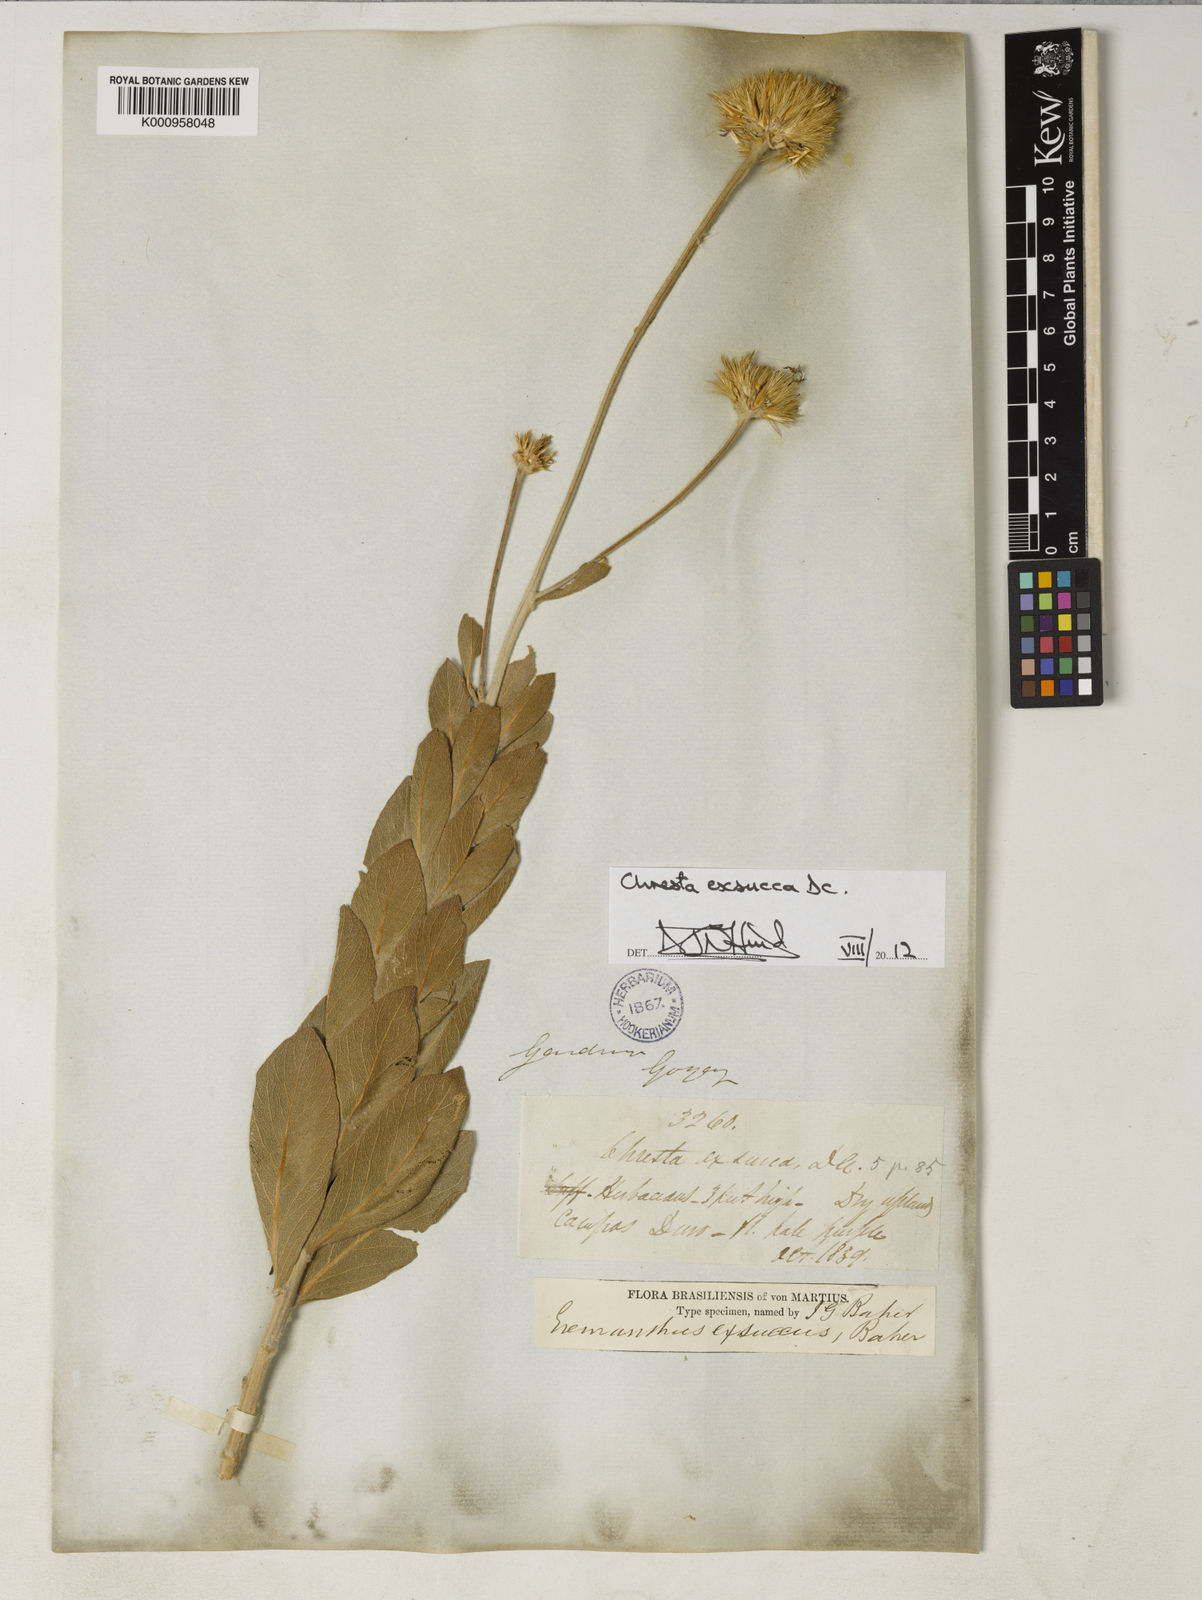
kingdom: Plantae
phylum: Tracheophyta
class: Magnoliopsida
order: Asterales
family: Asteraceae
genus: Chresta
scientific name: Chresta exsucca
